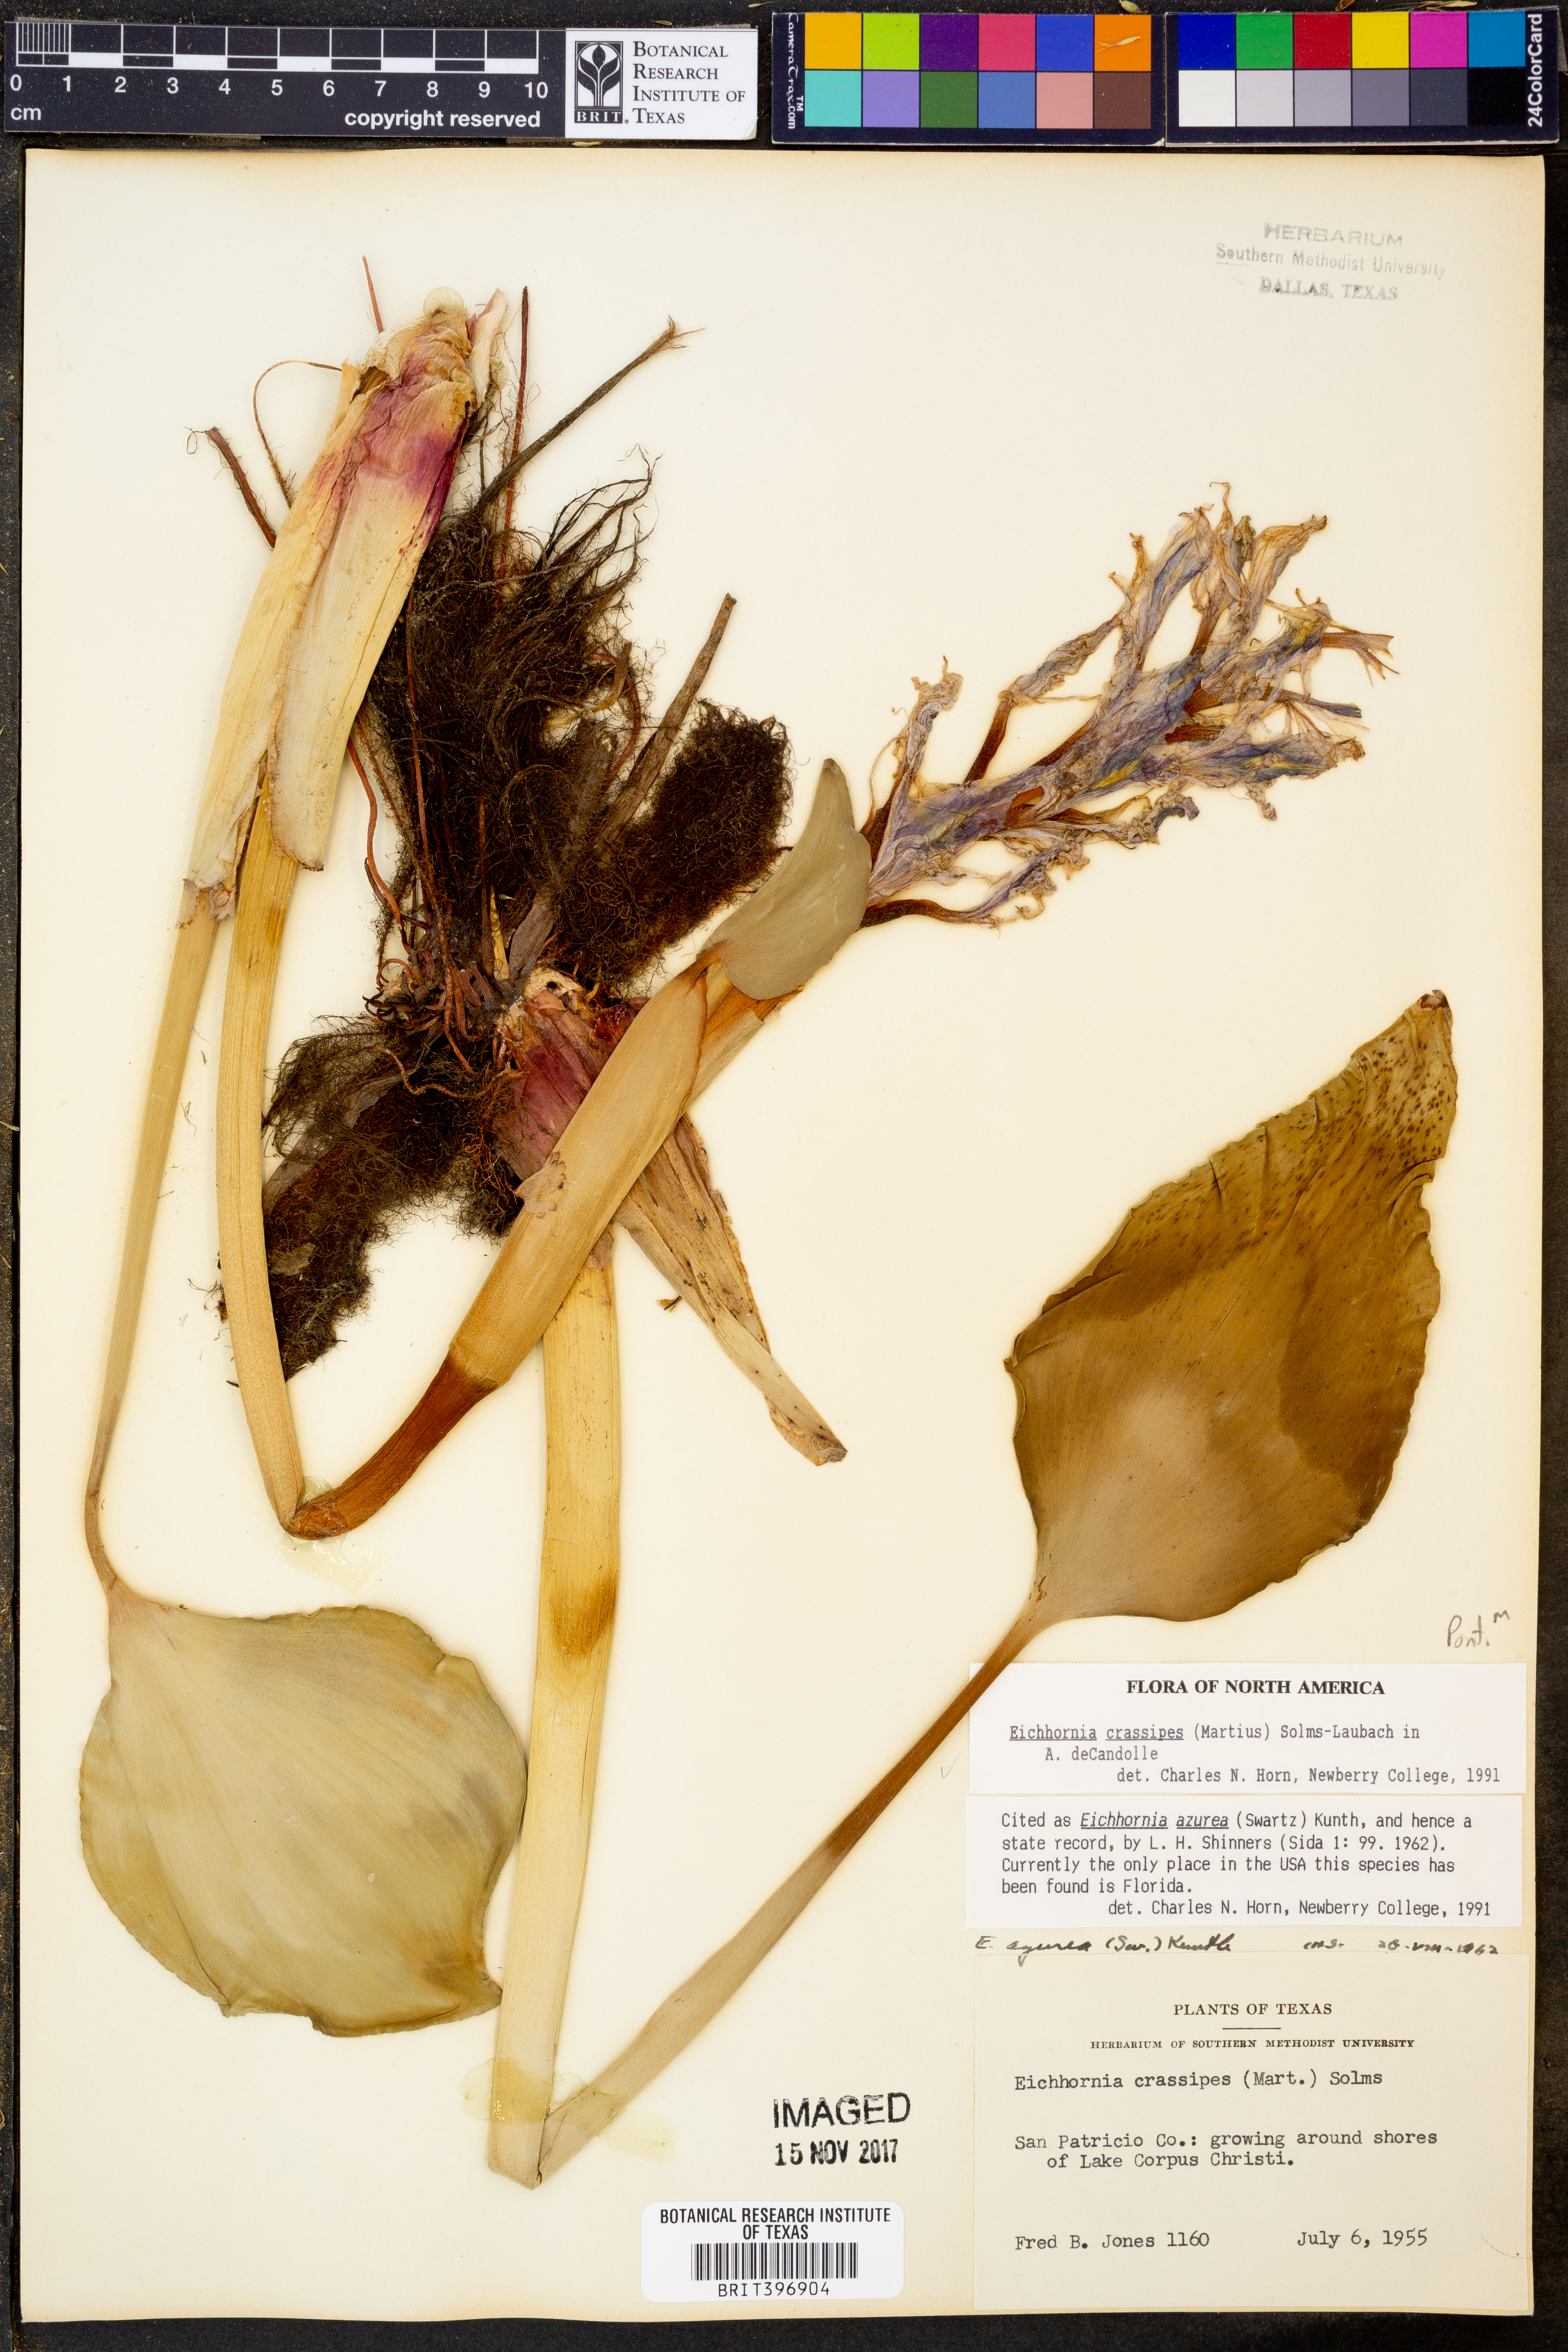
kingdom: Plantae
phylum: Tracheophyta
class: Liliopsida
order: Commelinales
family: Pontederiaceae
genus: Pontederia
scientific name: Pontederia crassipes
